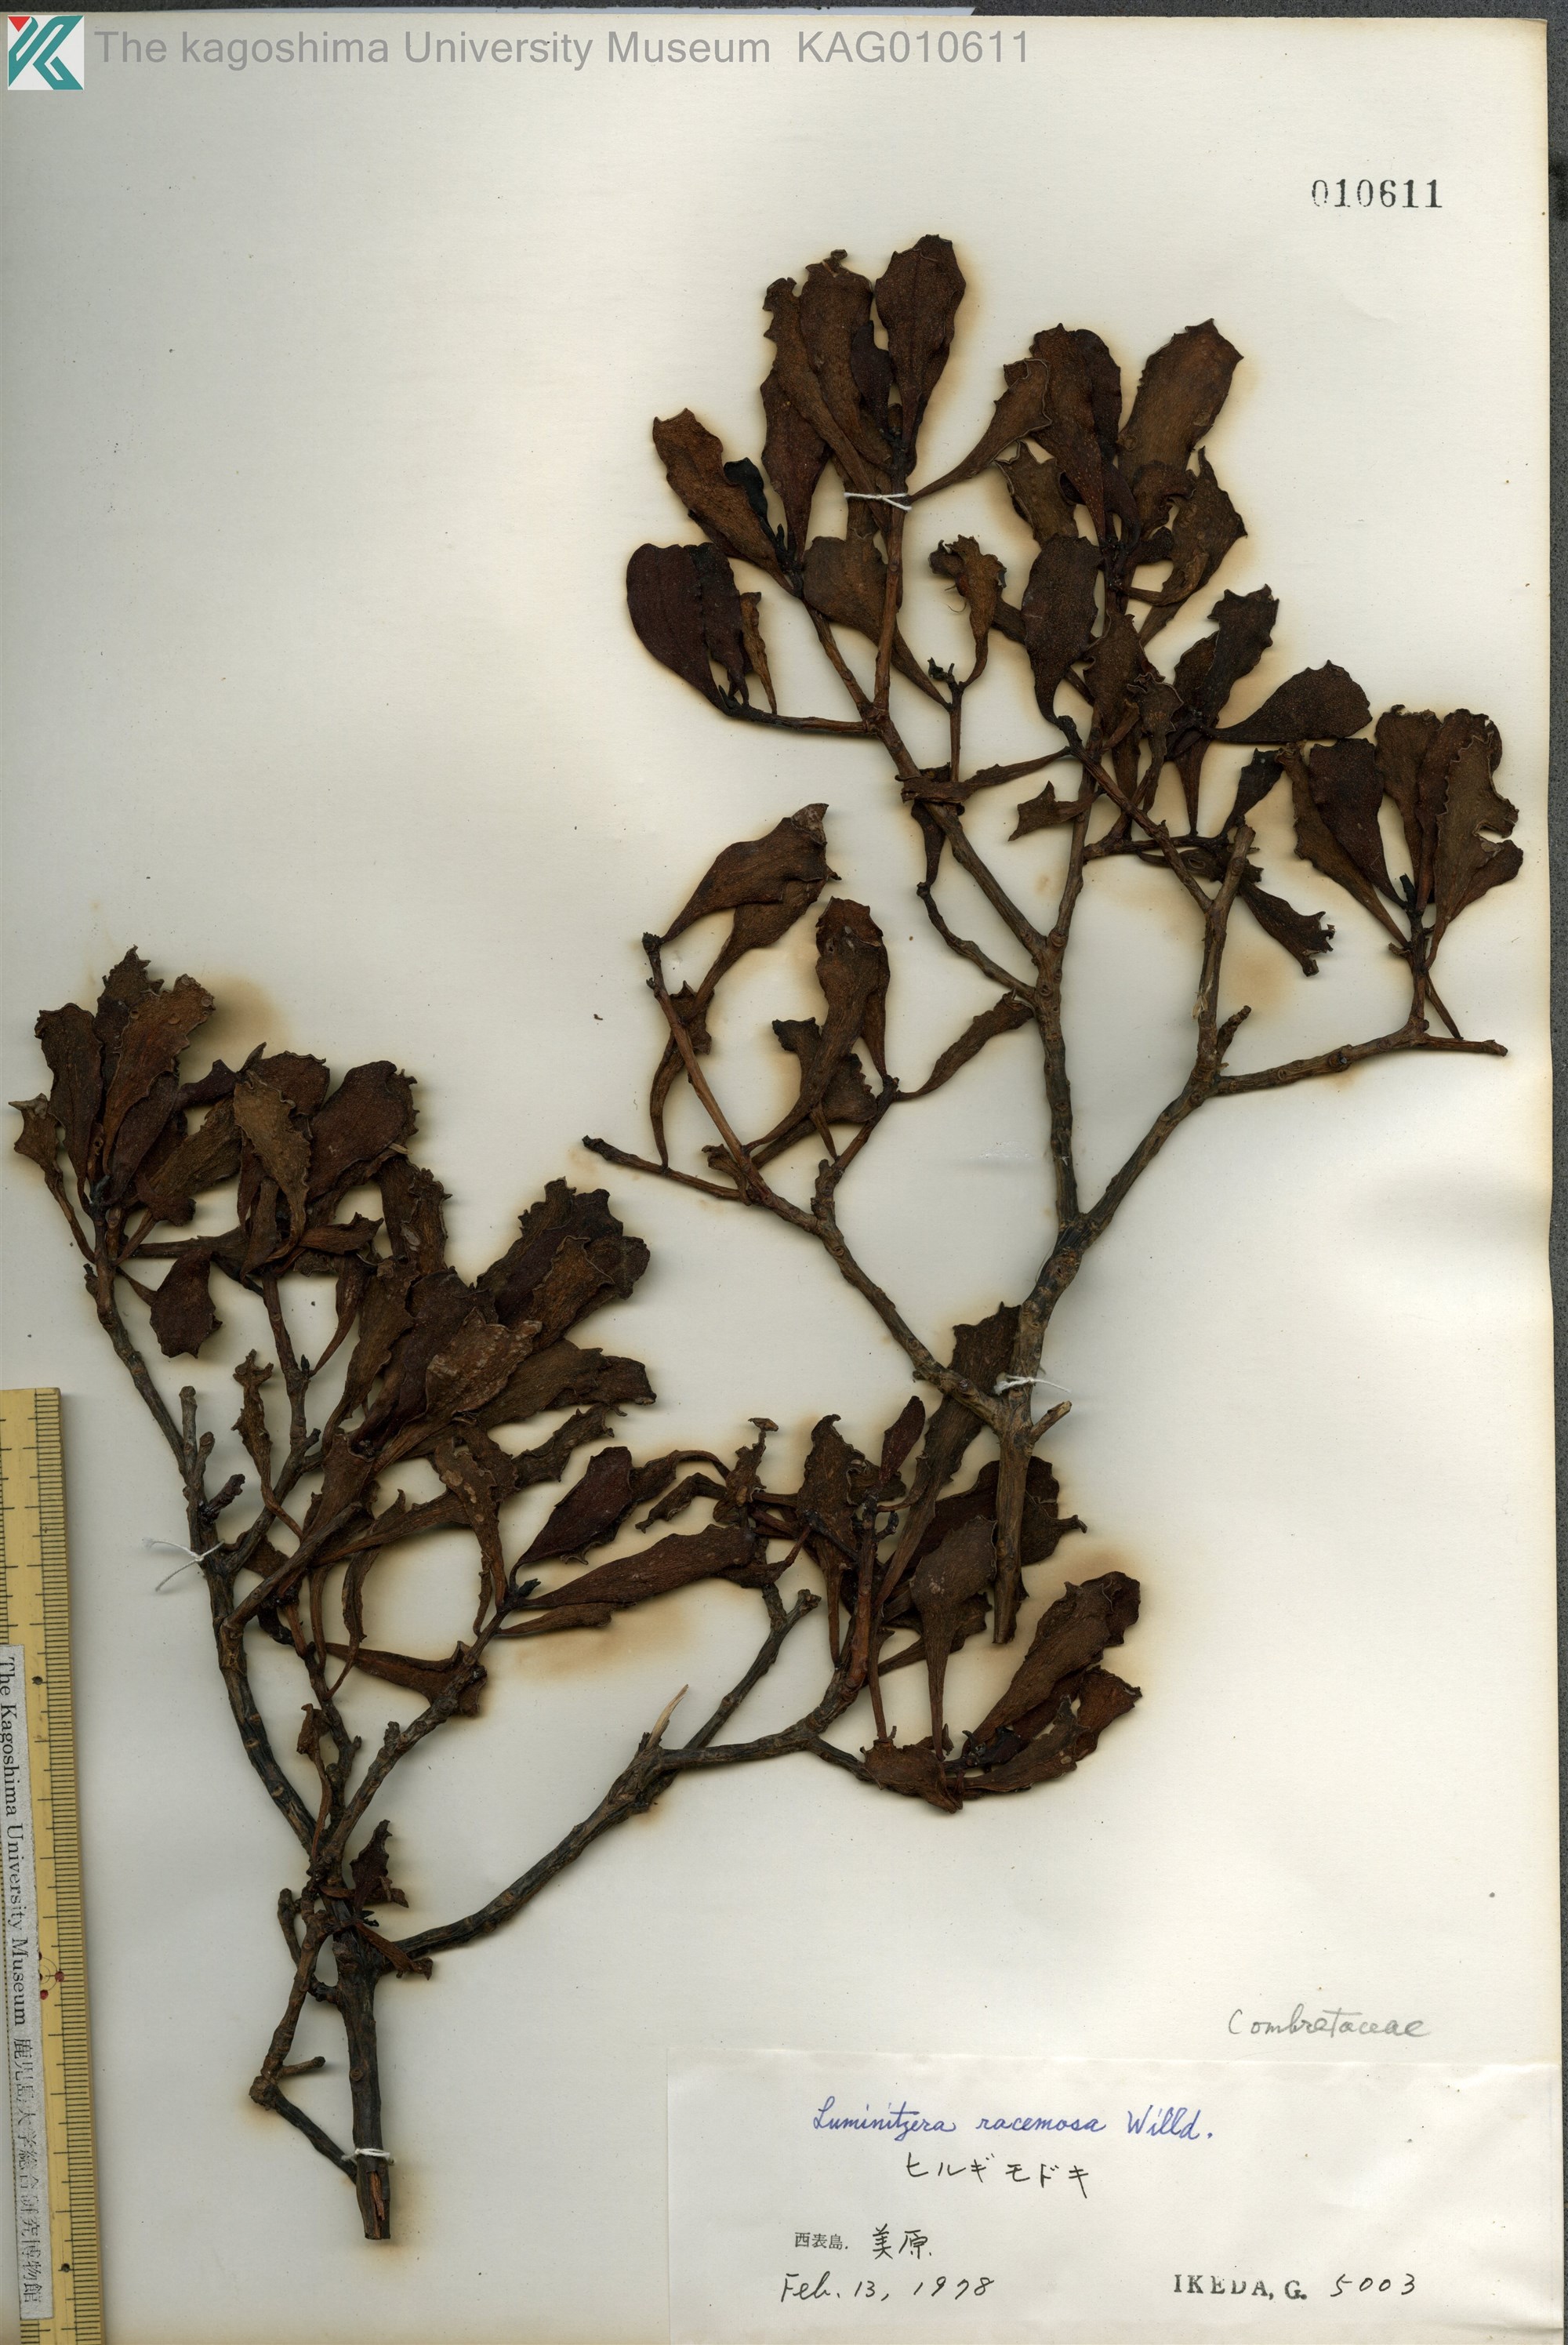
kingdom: Plantae
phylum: Tracheophyta
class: Magnoliopsida
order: Myrtales
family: Combretaceae
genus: Lumnitzera
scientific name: Lumnitzera racemosa
